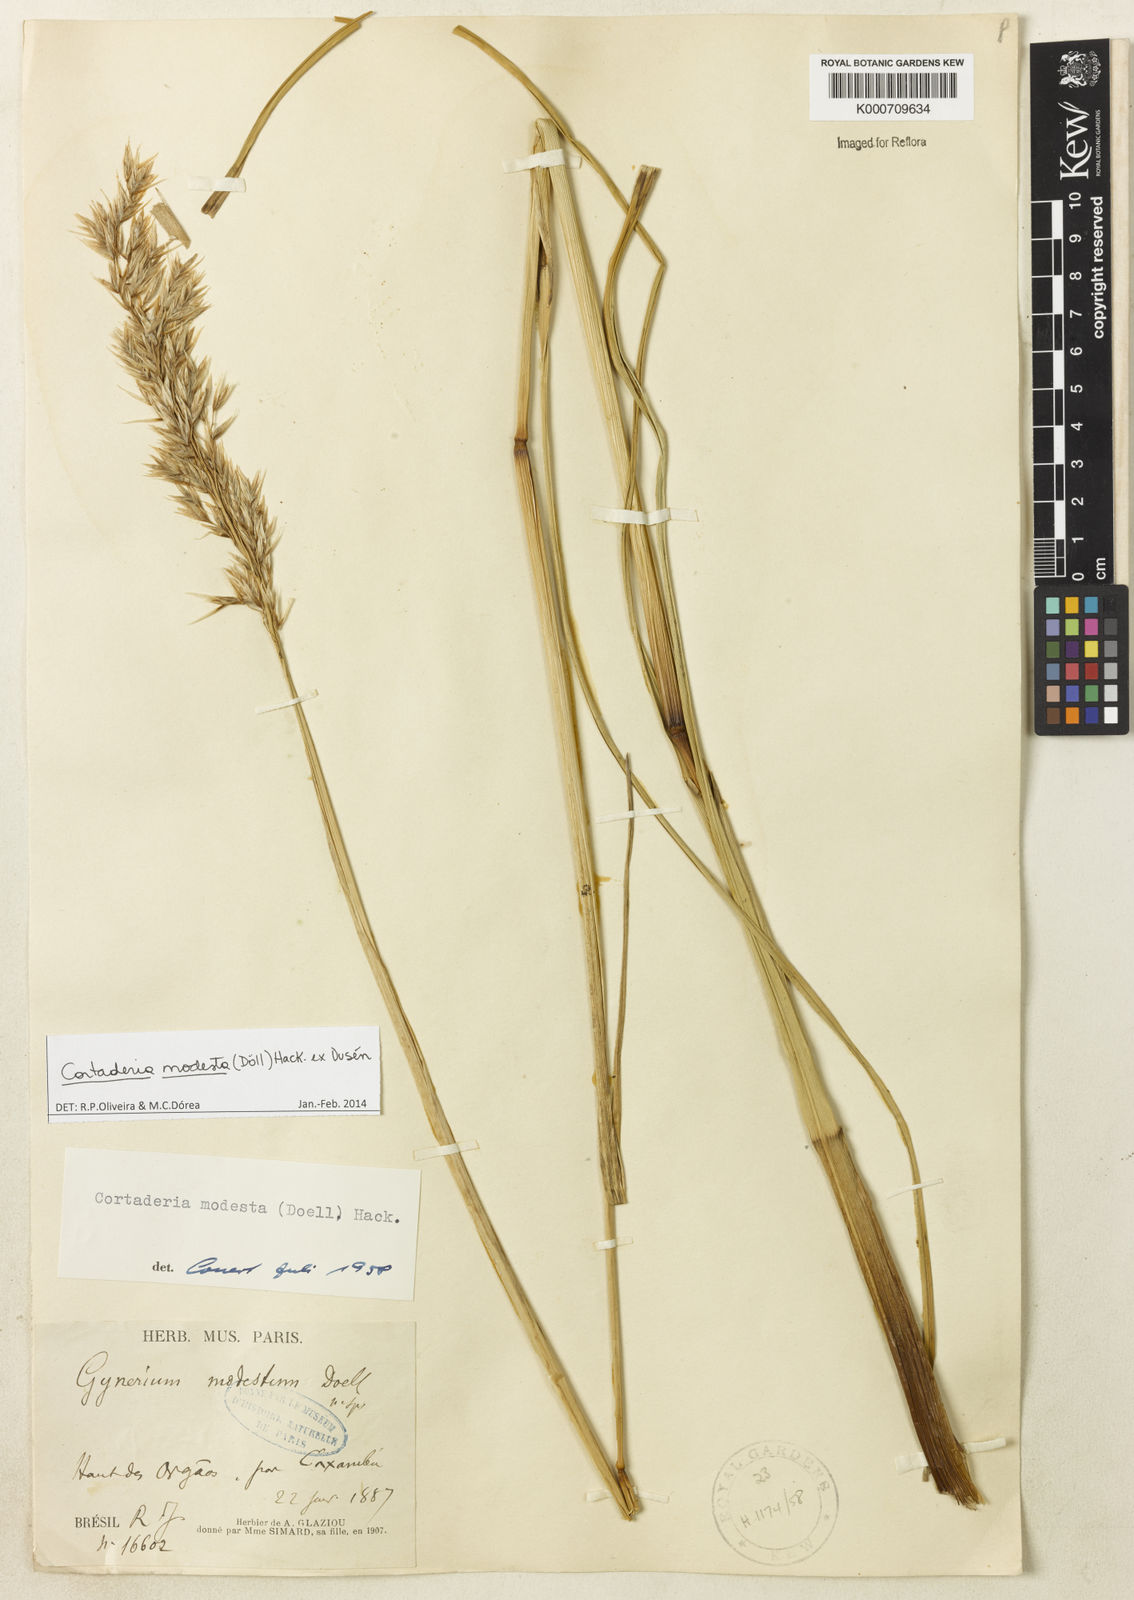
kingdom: Plantae
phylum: Tracheophyta
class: Liliopsida
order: Poales
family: Poaceae
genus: Cortaderia
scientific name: Cortaderia
